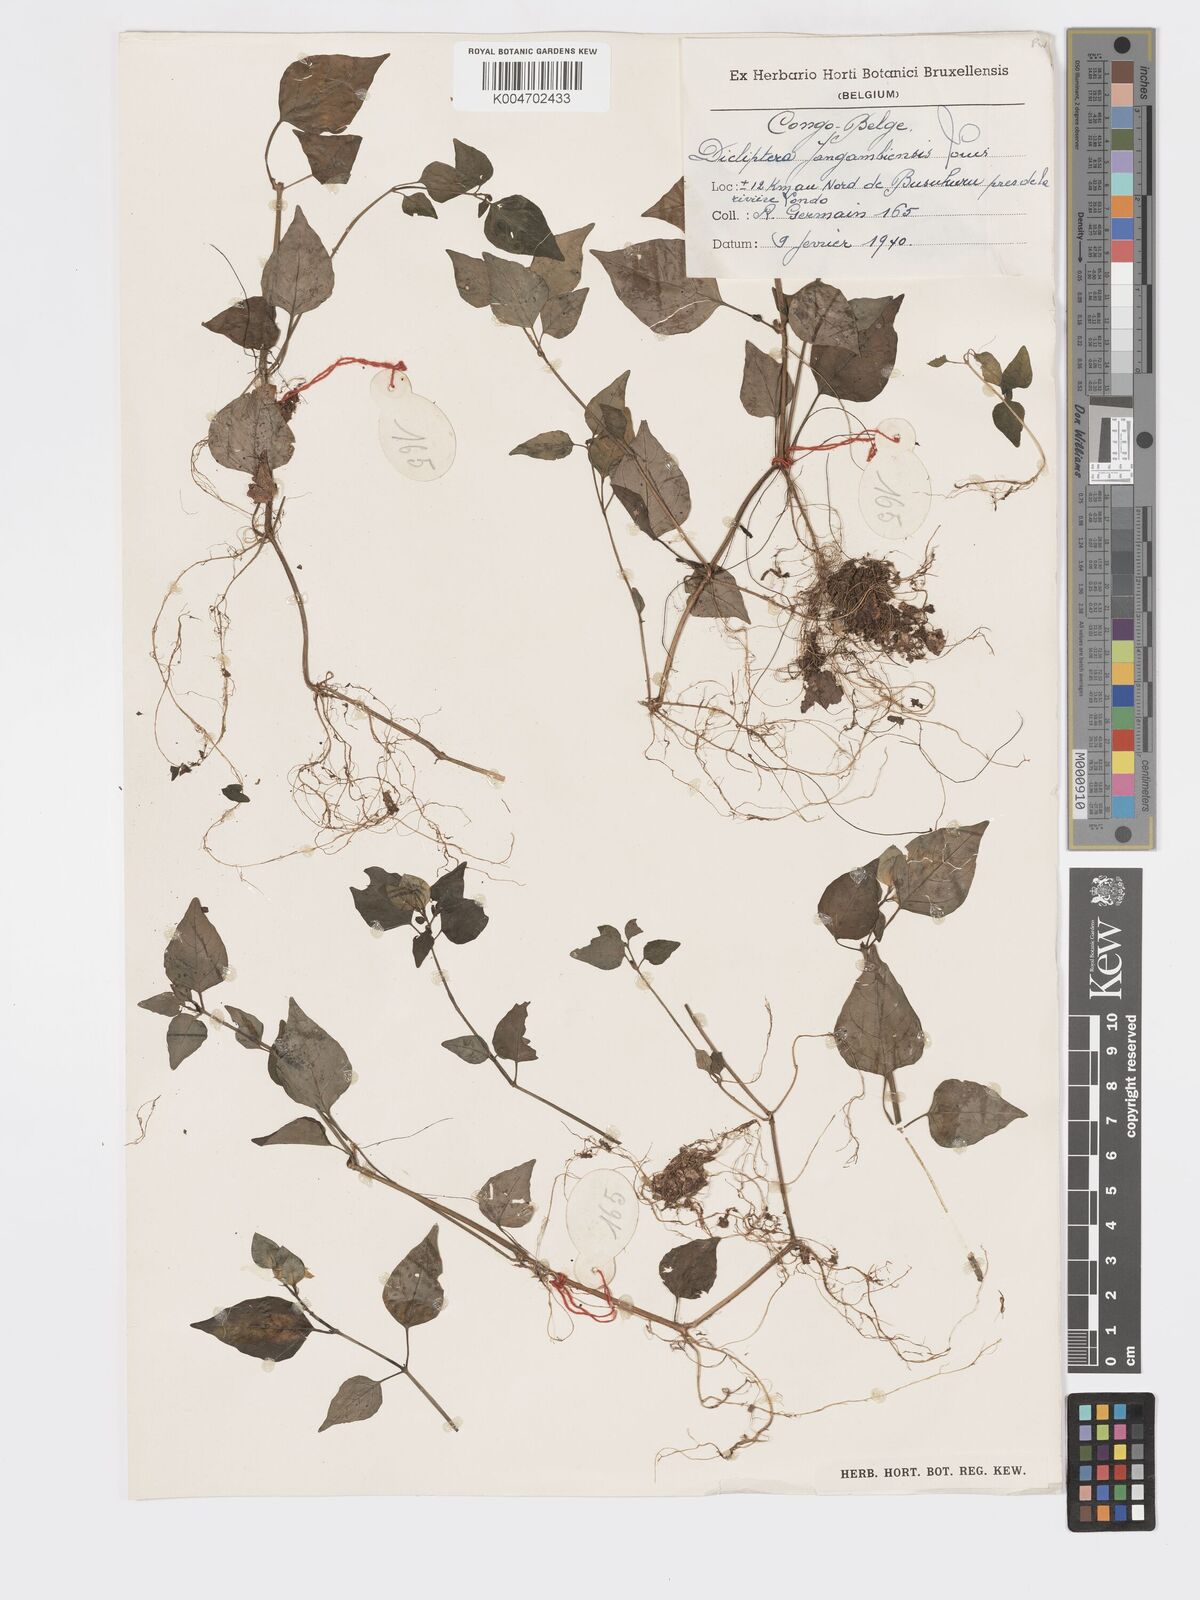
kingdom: Plantae
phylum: Tracheophyta
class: Magnoliopsida
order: Lamiales
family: Acanthaceae
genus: Dicliptera
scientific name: Dicliptera
